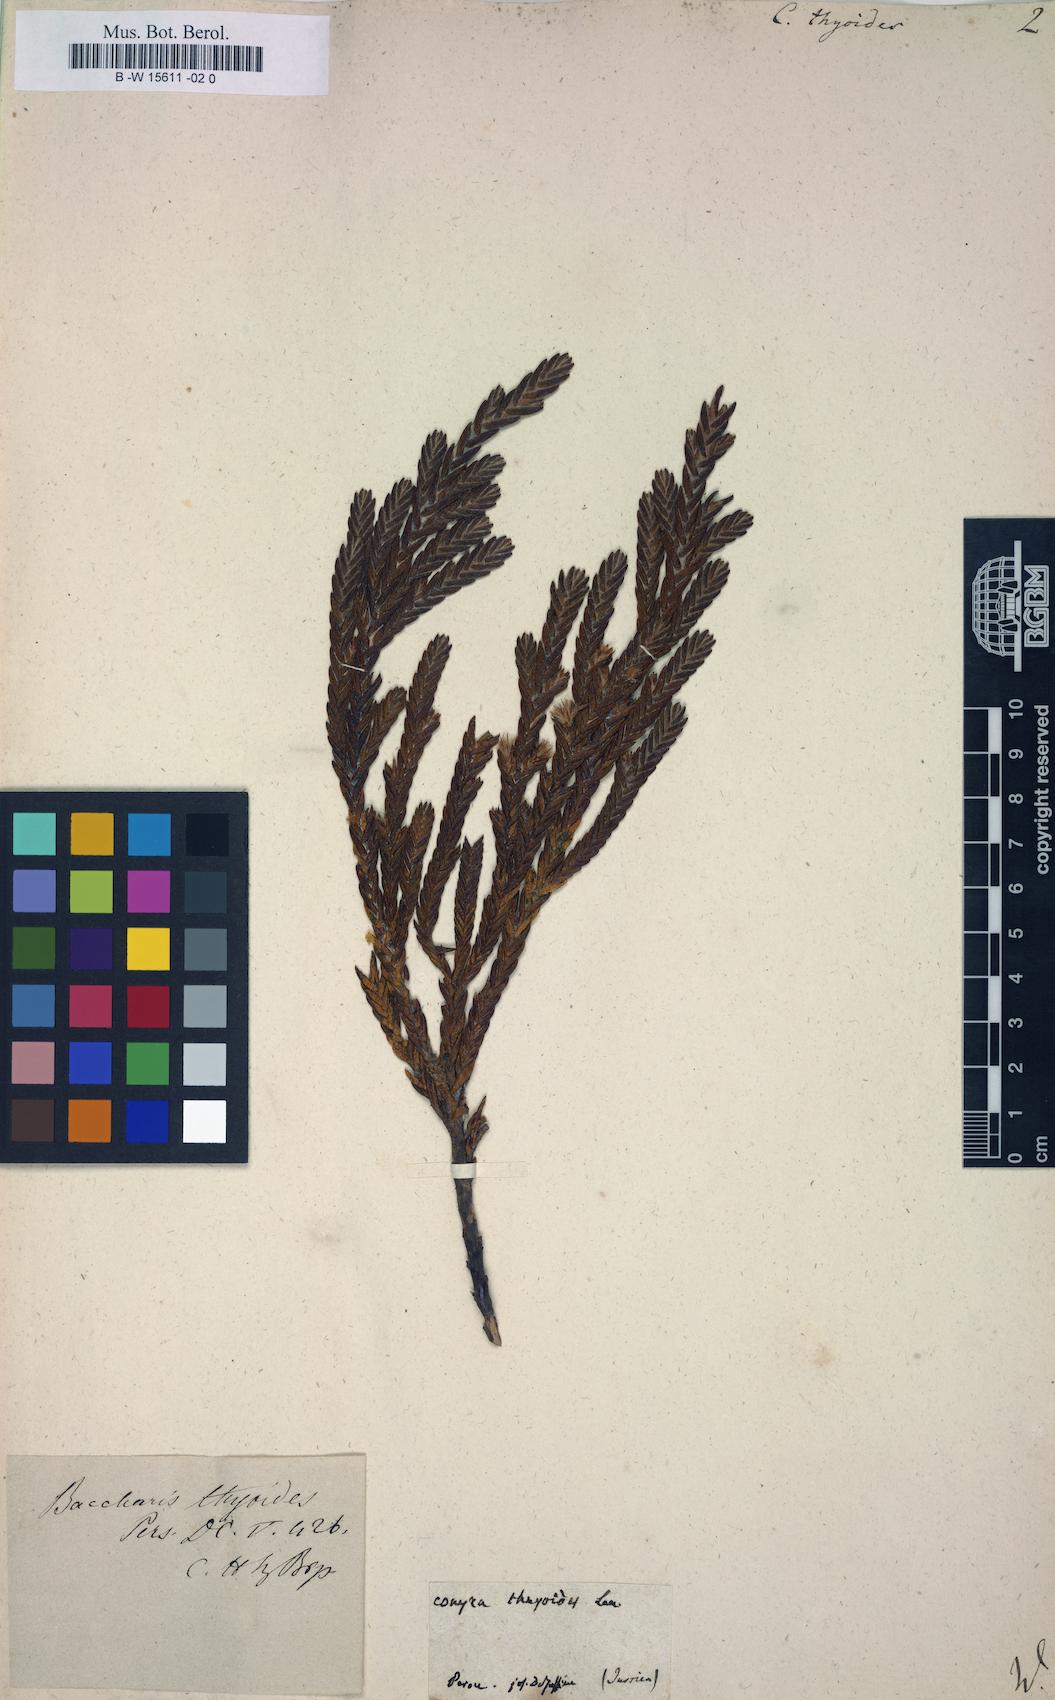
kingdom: Plantae
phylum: Tracheophyta
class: Magnoliopsida
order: Asterales
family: Asteraceae
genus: Conyza
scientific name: Conyza
